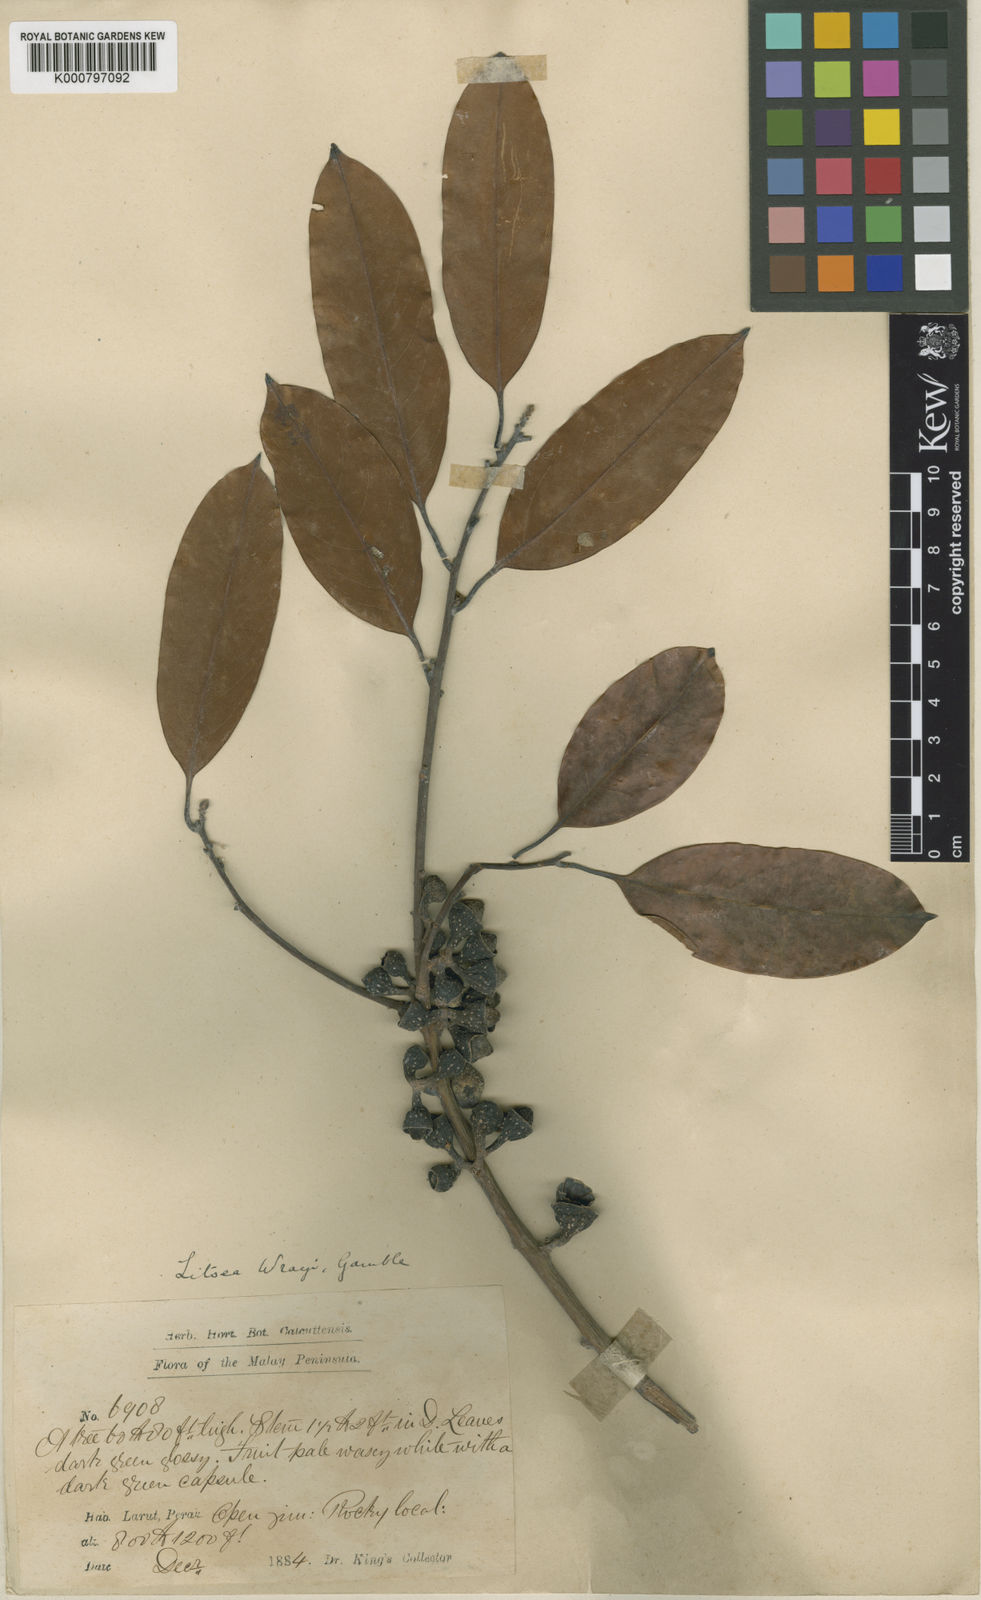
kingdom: Plantae
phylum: Tracheophyta
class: Magnoliopsida
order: Laurales
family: Lauraceae
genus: Litsea
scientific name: Litsea accedens
